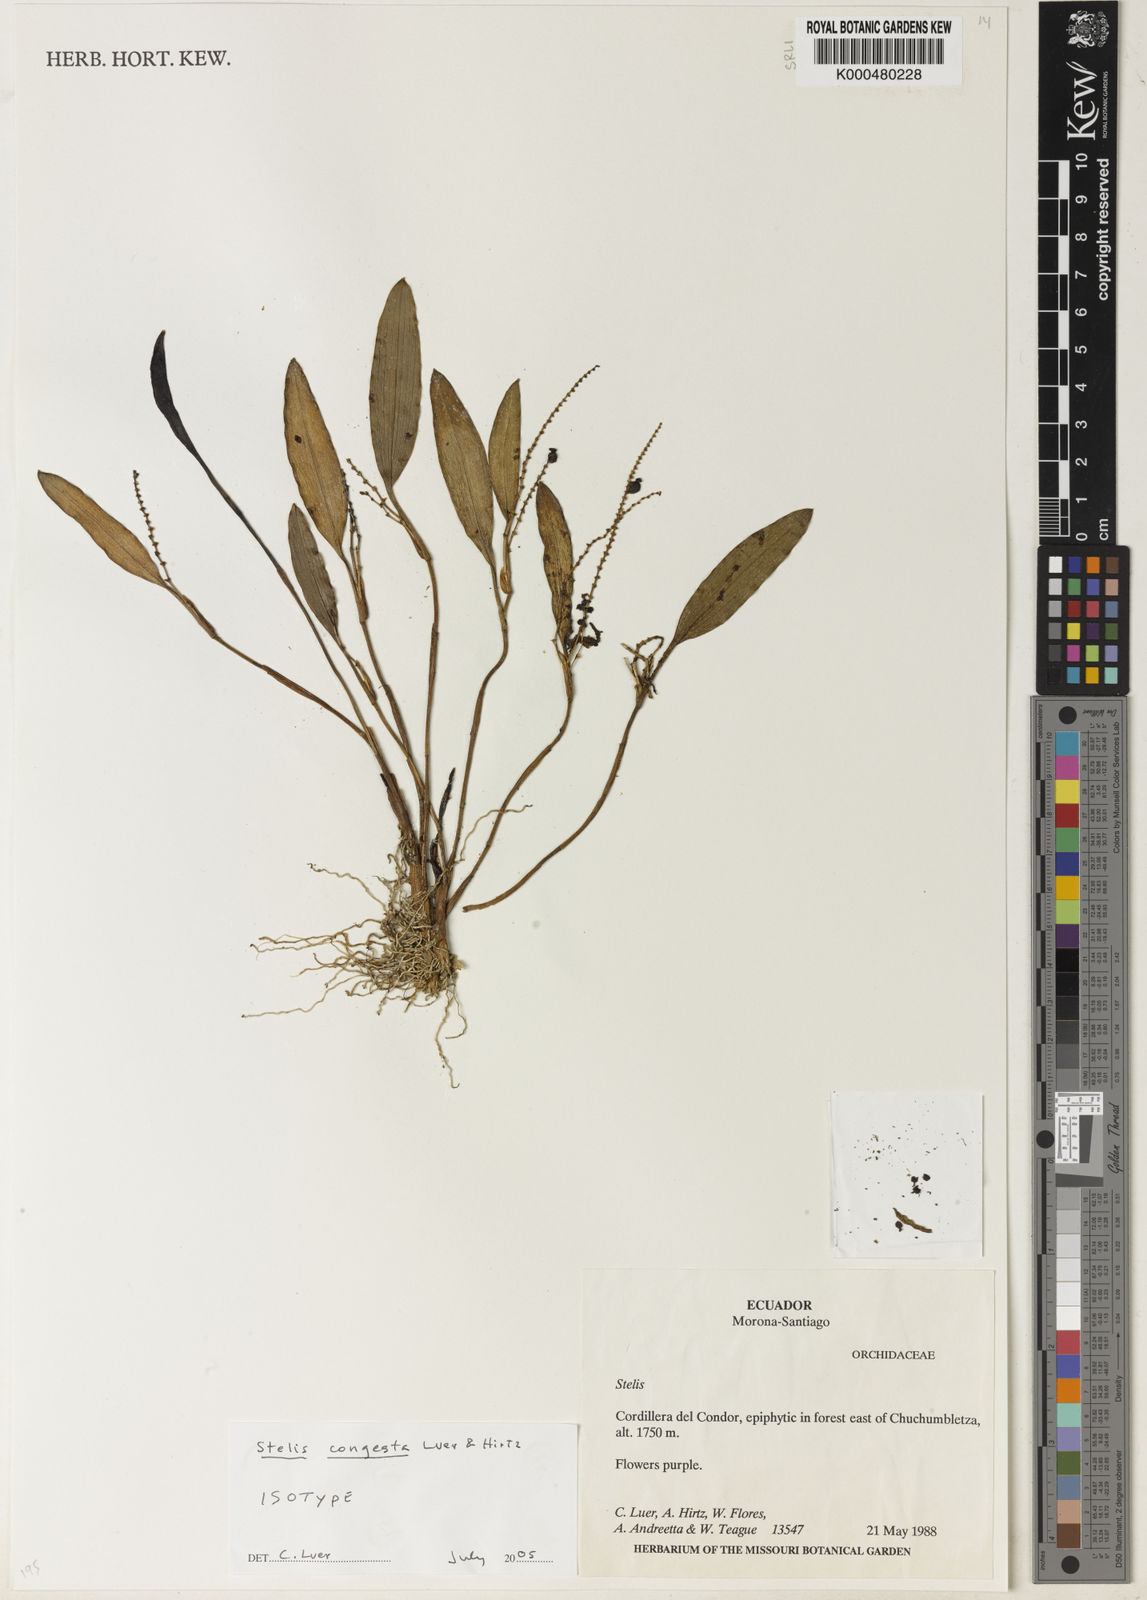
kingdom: Plantae
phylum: Tracheophyta
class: Liliopsida
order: Asparagales
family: Orchidaceae
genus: Stelis
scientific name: Stelis congesta
